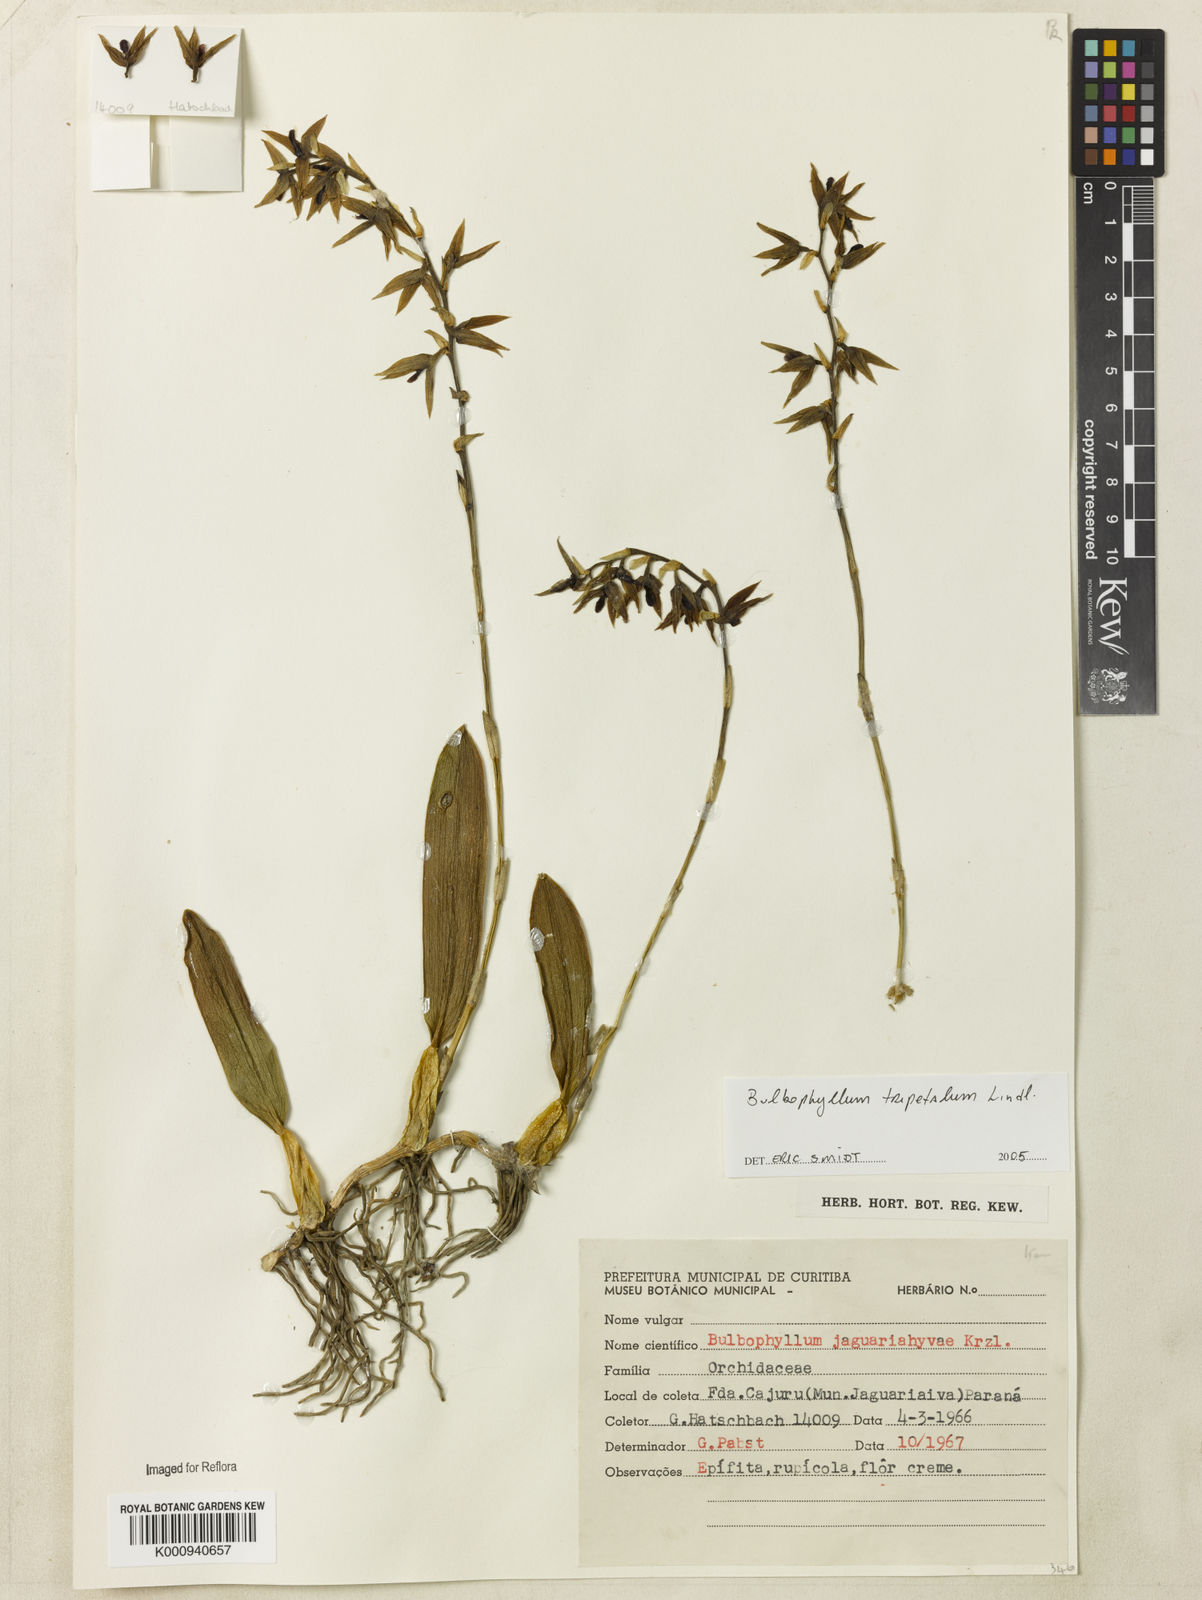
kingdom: Plantae
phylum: Tracheophyta
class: Liliopsida
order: Asparagales
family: Orchidaceae
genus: Bulbophyllum
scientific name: Bulbophyllum tripetalum
